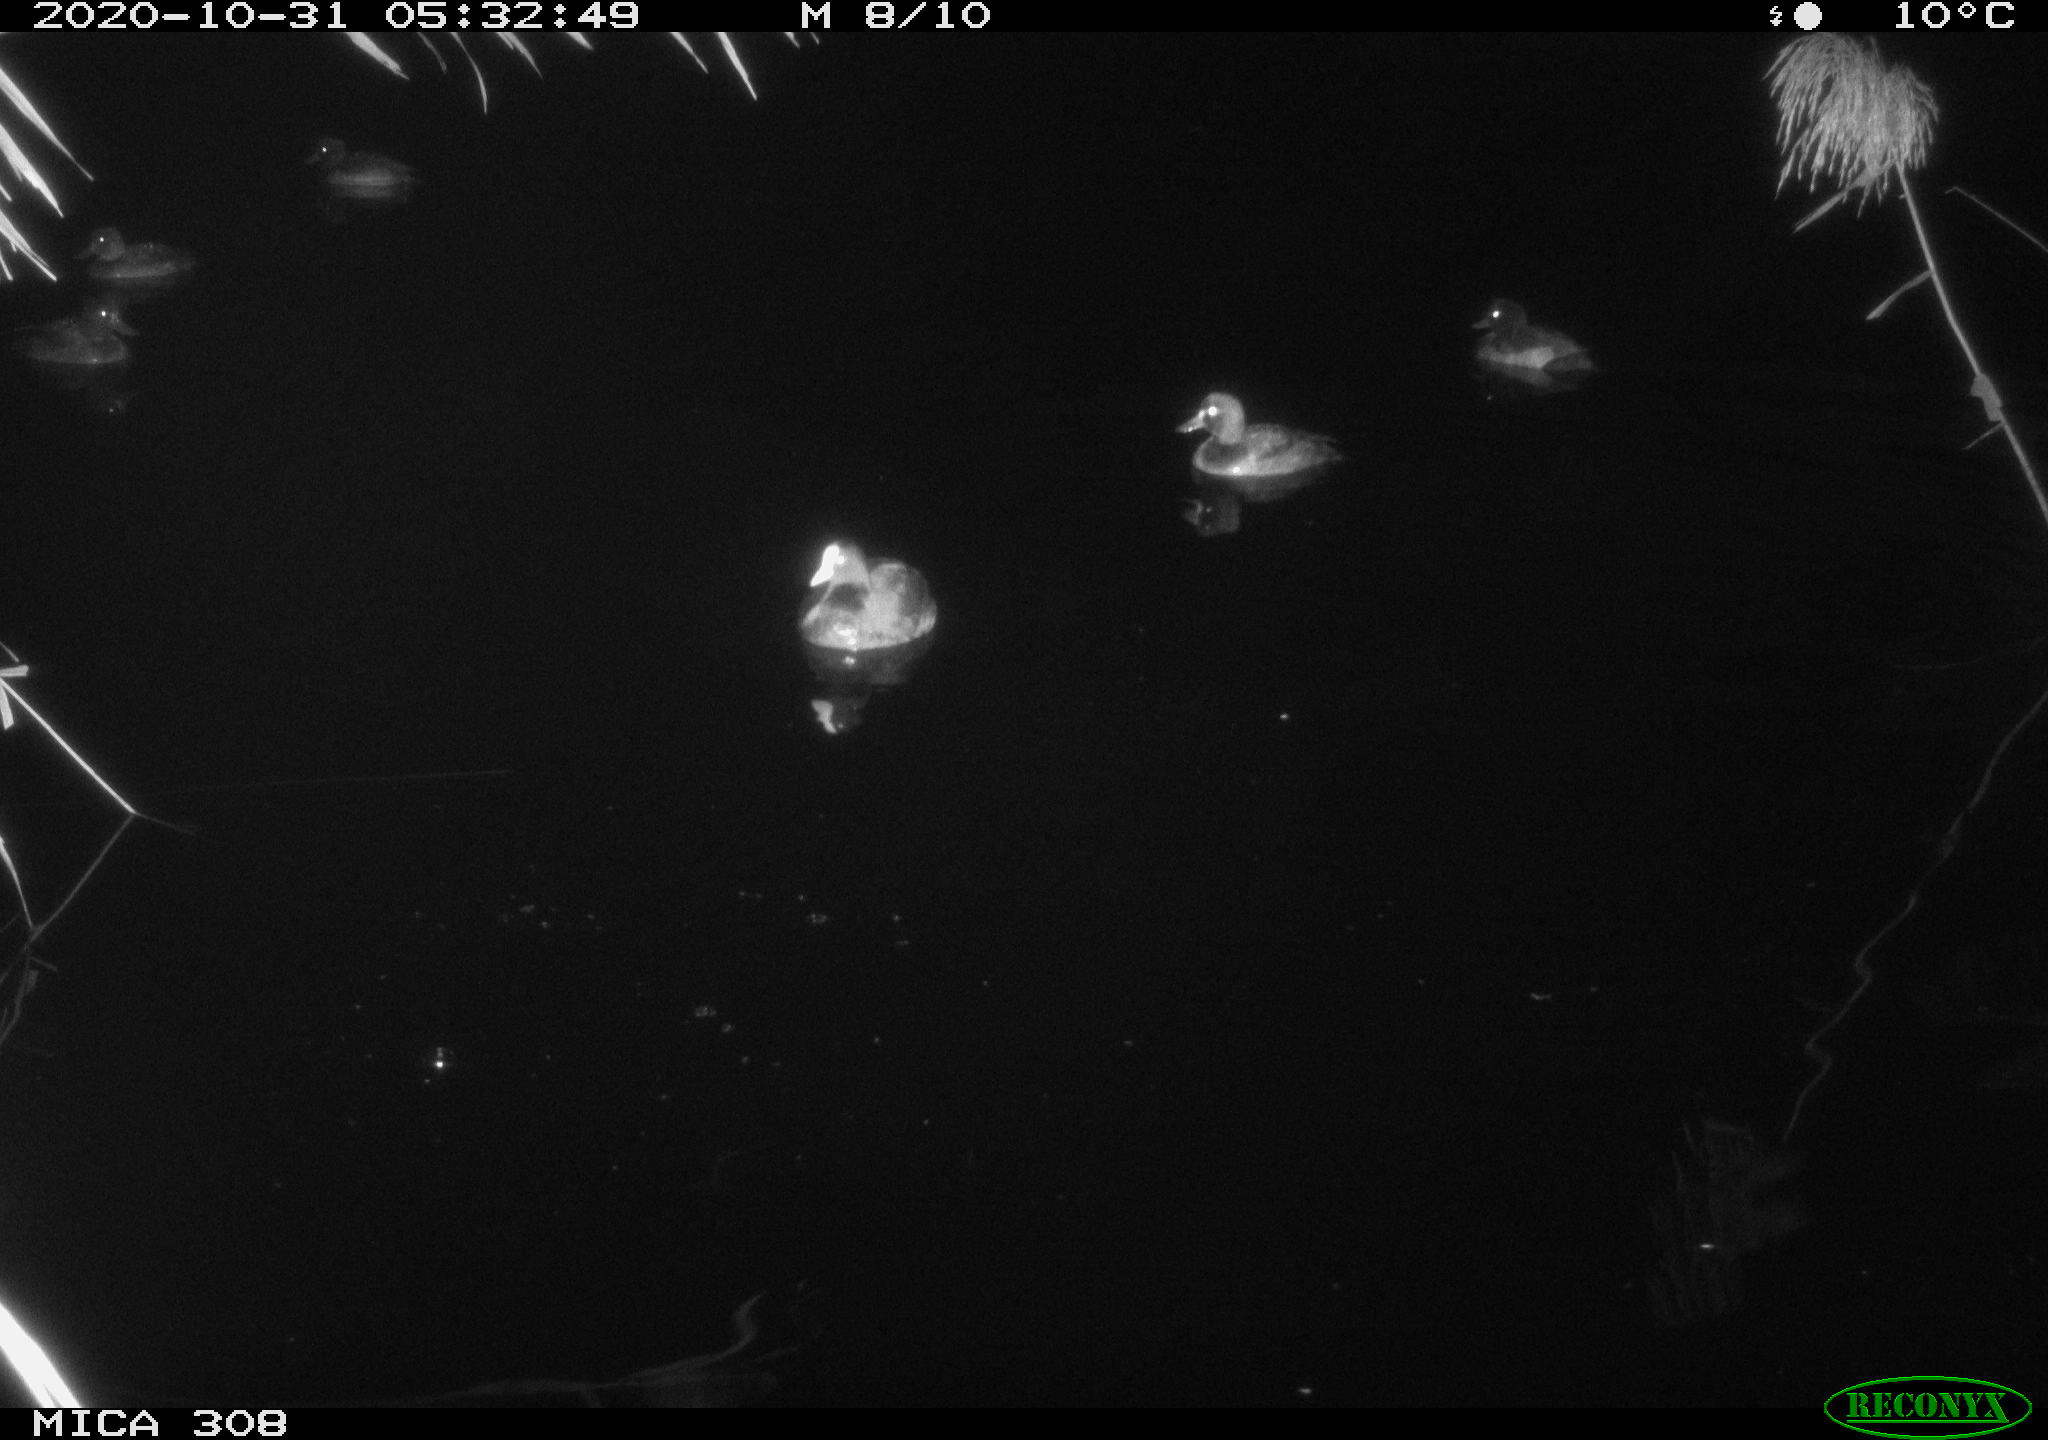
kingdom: Animalia
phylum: Chordata
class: Aves
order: Gruiformes
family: Rallidae
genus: Fulica
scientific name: Fulica atra
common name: Eurasian coot
